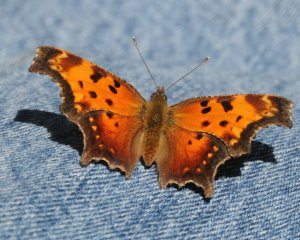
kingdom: Animalia
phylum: Arthropoda
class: Insecta
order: Lepidoptera
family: Nymphalidae
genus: Polygonia
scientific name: Polygonia comma
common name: Eastern Comma
